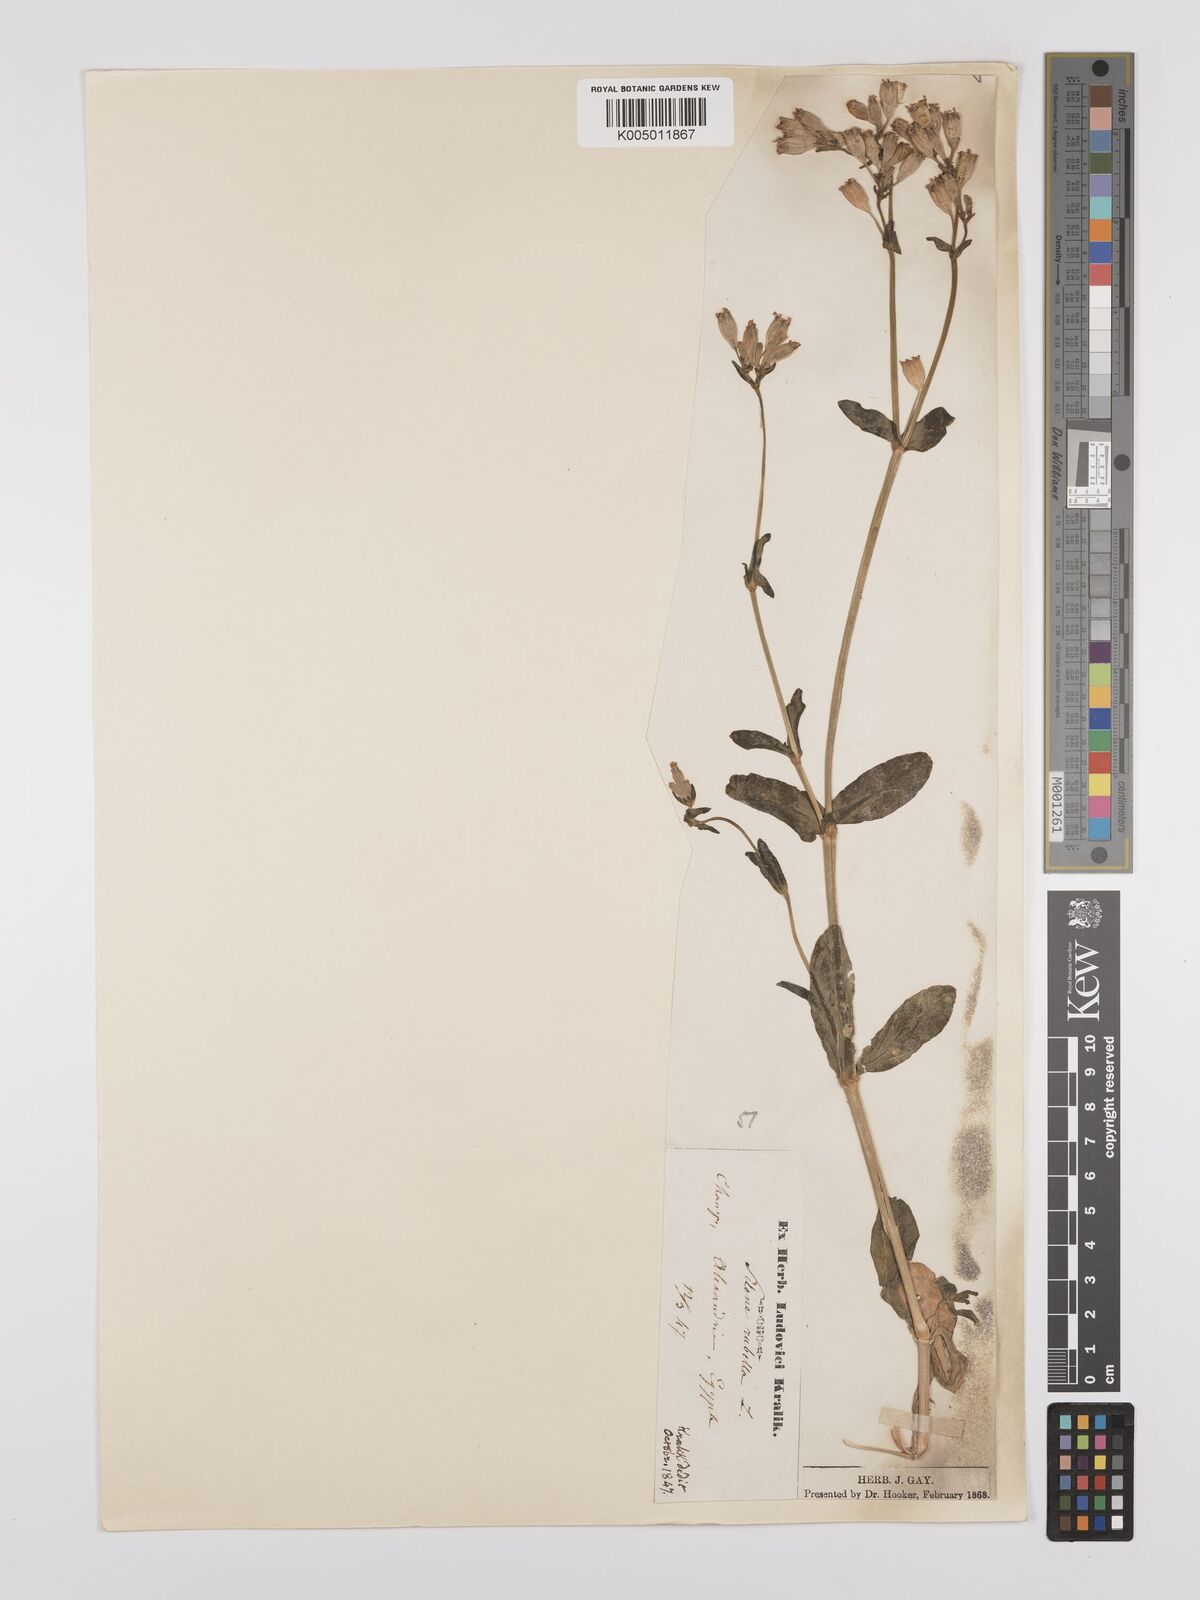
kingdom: Plantae
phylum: Tracheophyta
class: Magnoliopsida
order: Caryophyllales
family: Caryophyllaceae
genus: Silene
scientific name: Silene rubella
